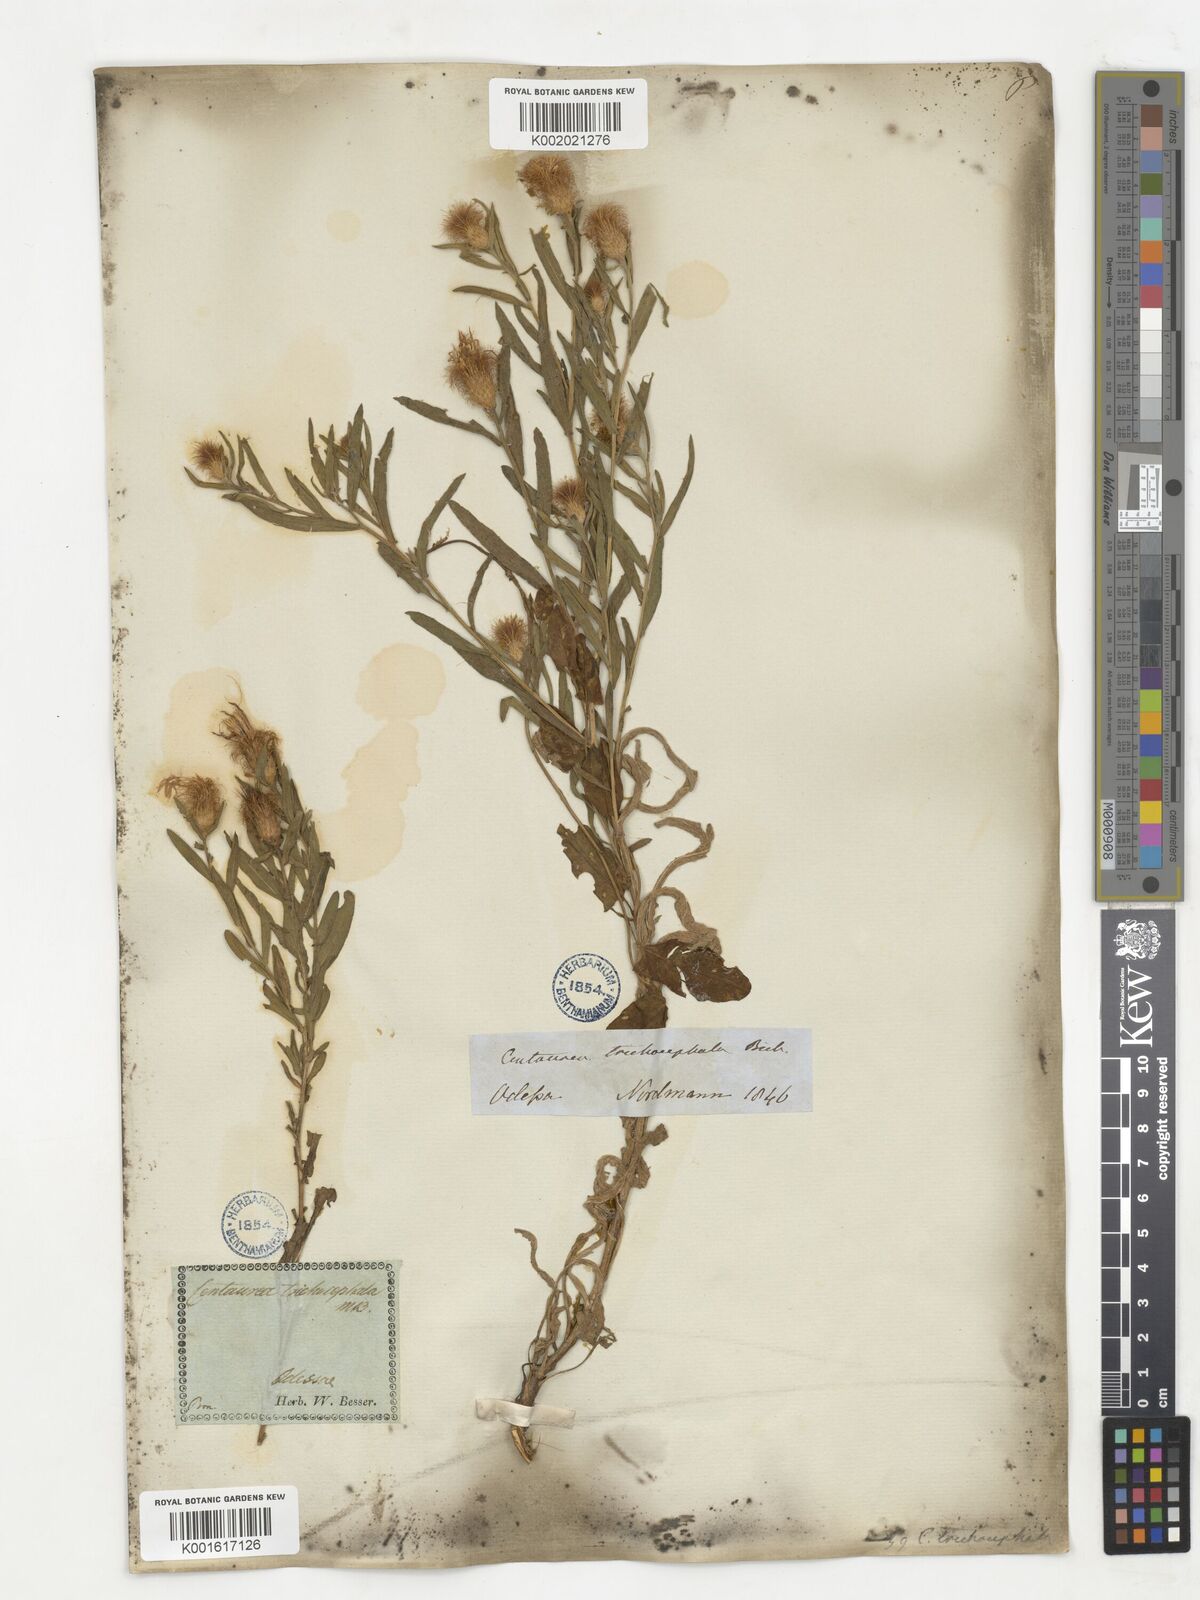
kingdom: Plantae
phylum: Tracheophyta
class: Magnoliopsida
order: Asterales
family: Asteraceae
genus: Centaurea
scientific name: Centaurea trichocephala
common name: Feather-head knapweed
